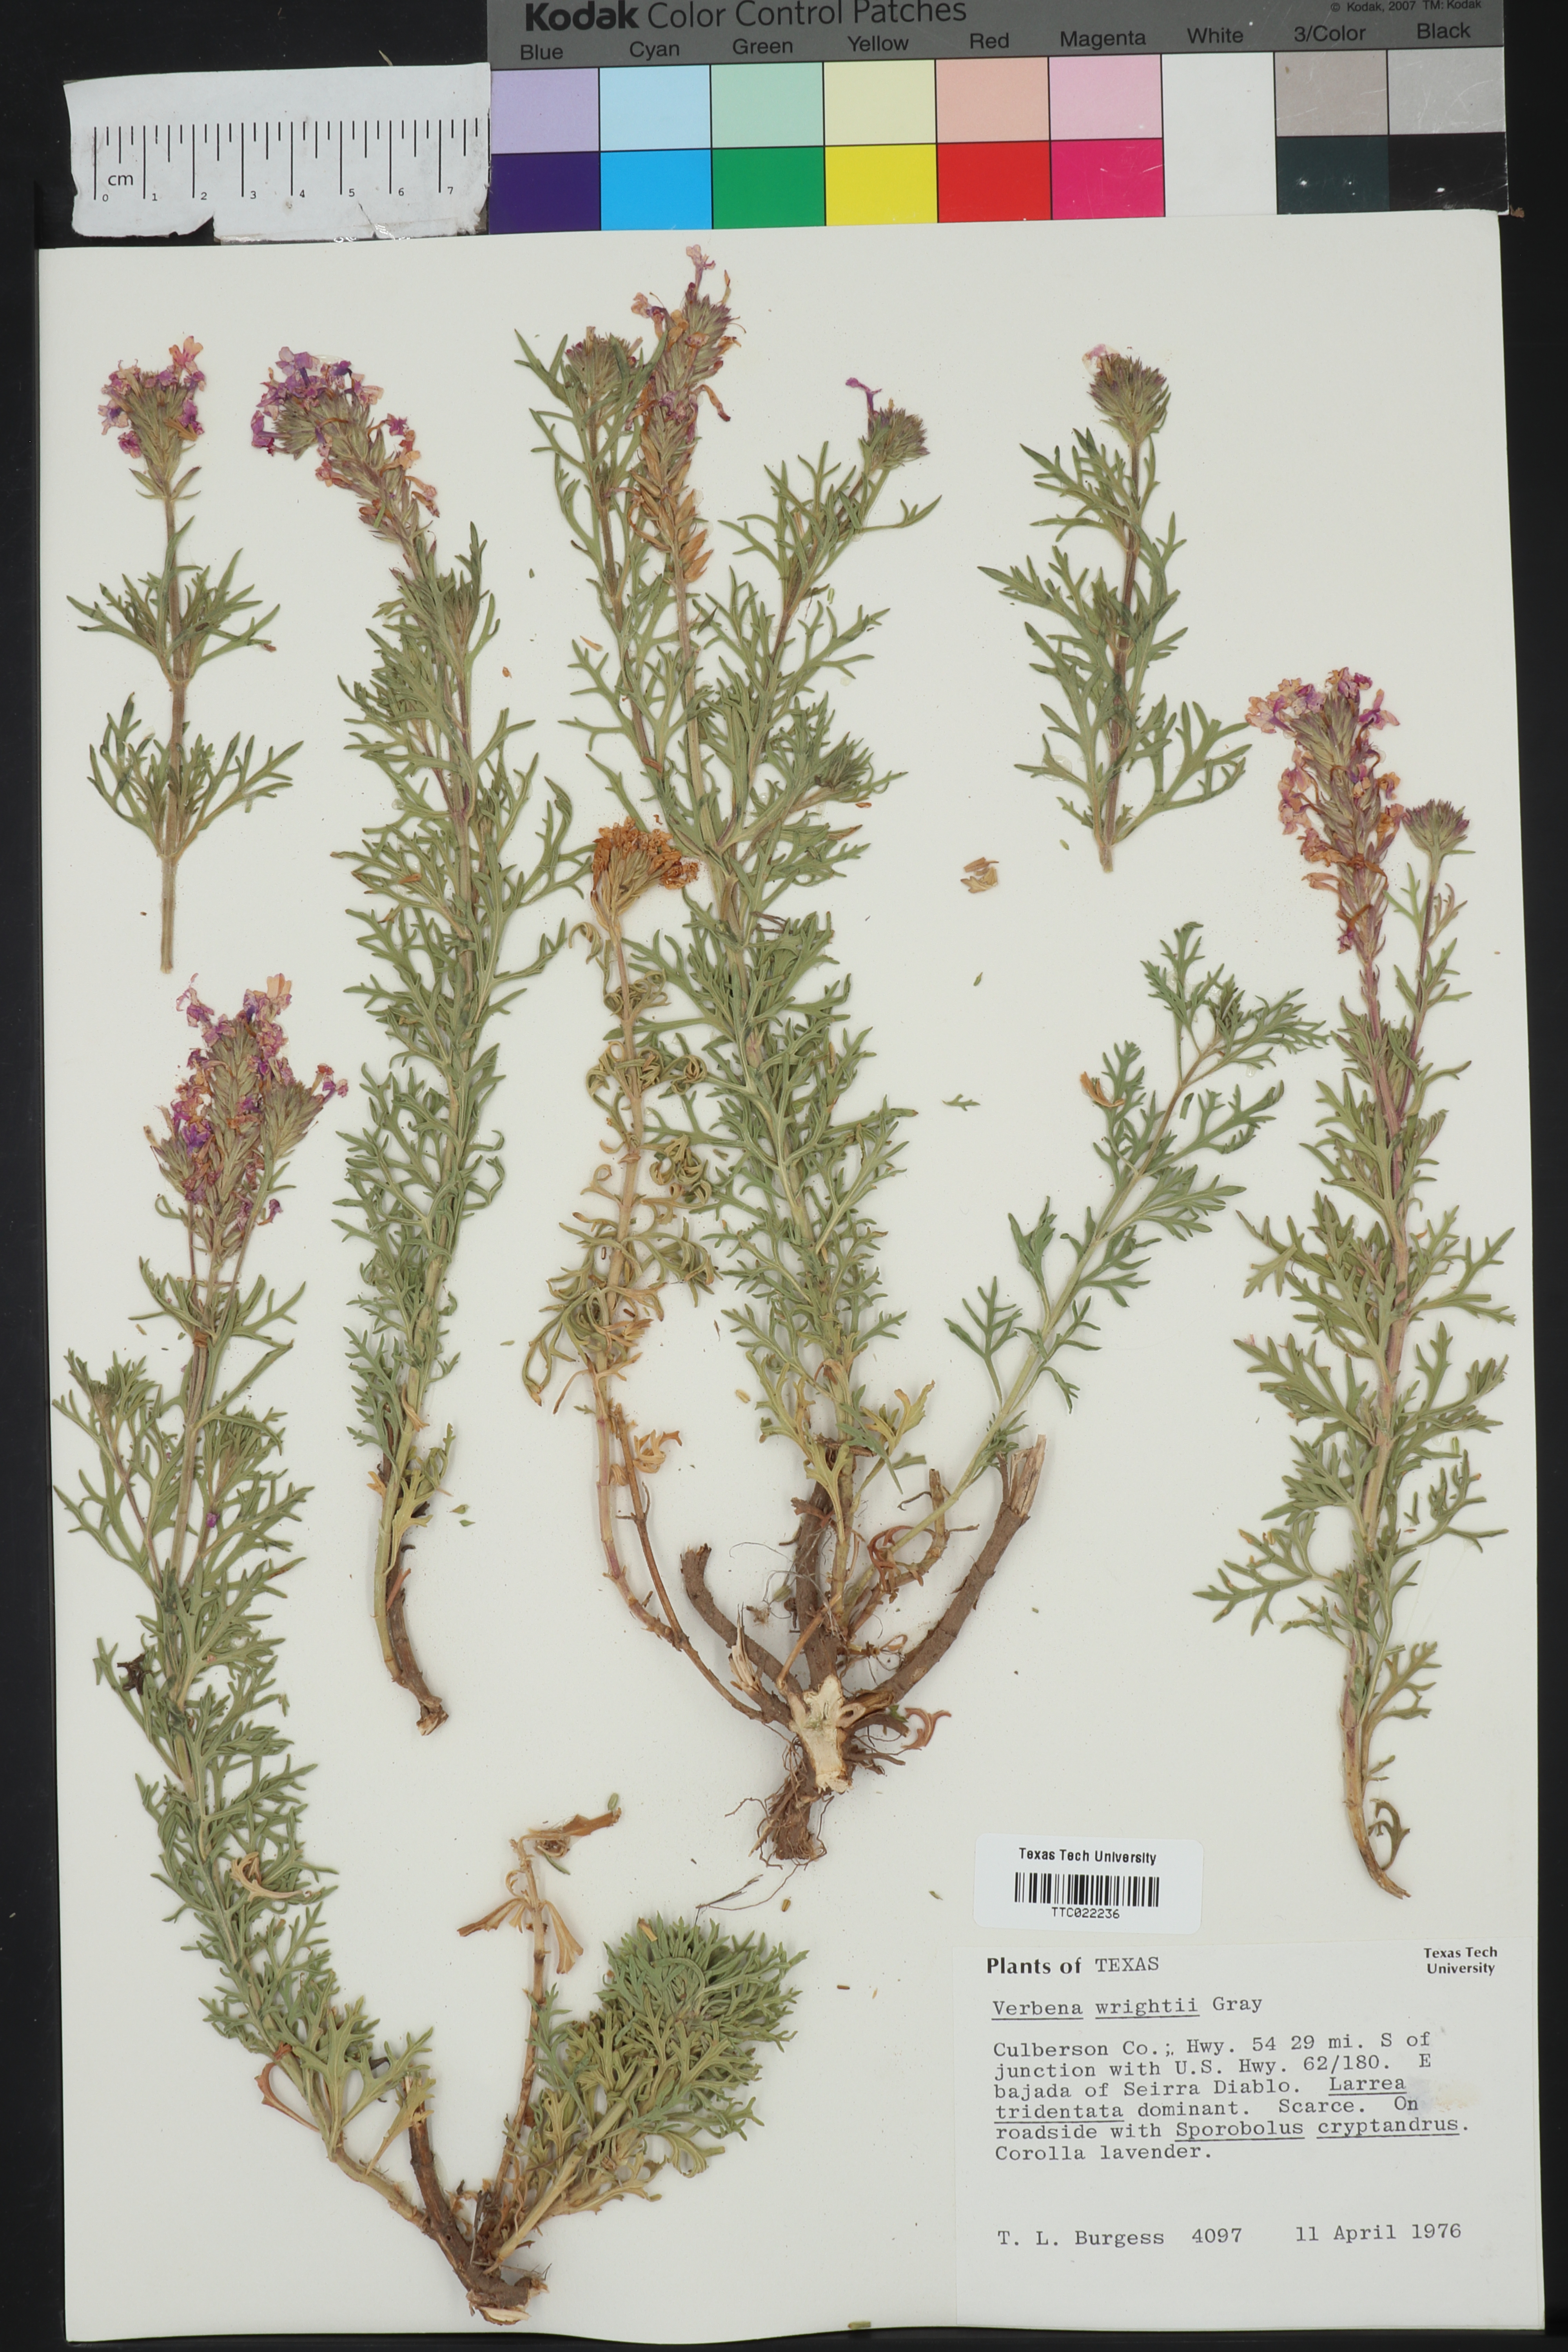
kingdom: Plantae
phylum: Tracheophyta
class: Magnoliopsida
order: Lamiales
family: Verbenaceae
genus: Verbena
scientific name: Verbena bipinnatifida
